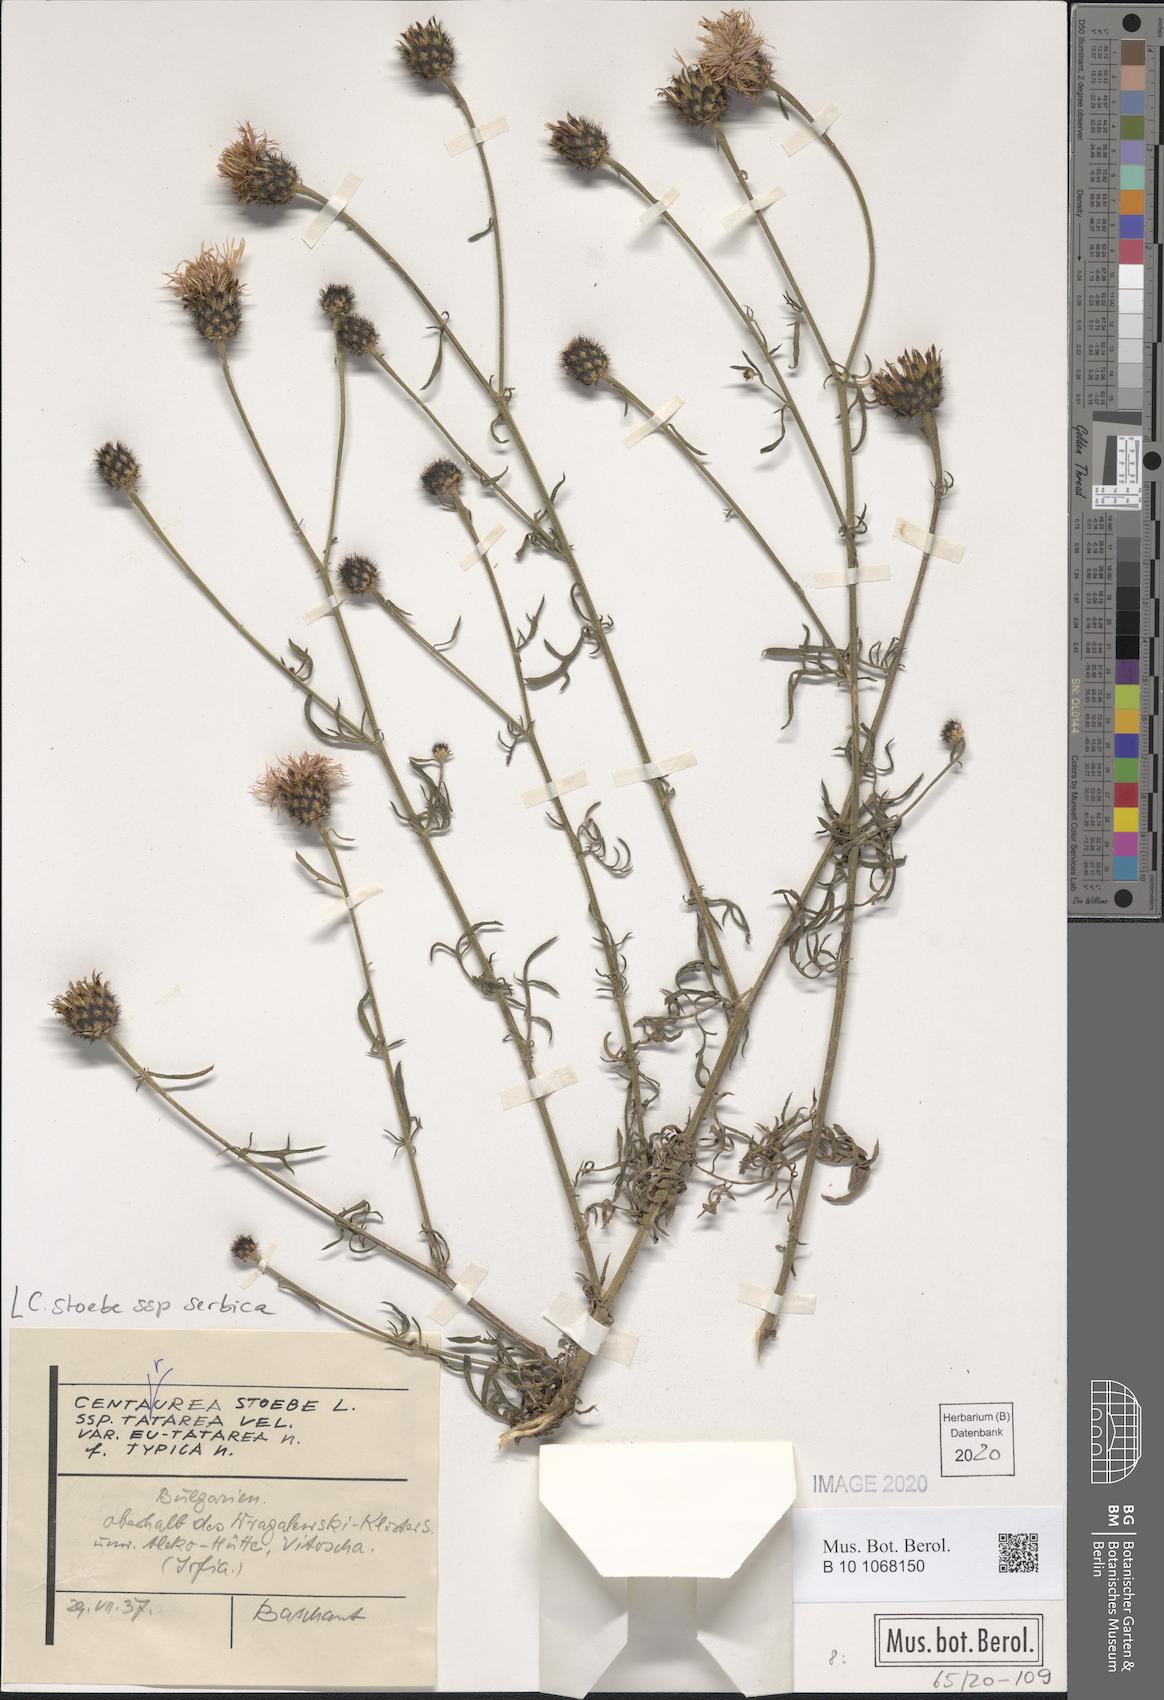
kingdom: Plantae
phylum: Tracheophyta
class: Magnoliopsida
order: Asterales
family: Asteraceae
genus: Centaurea
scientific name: Centaurea stoebe
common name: Spotted knapweed
